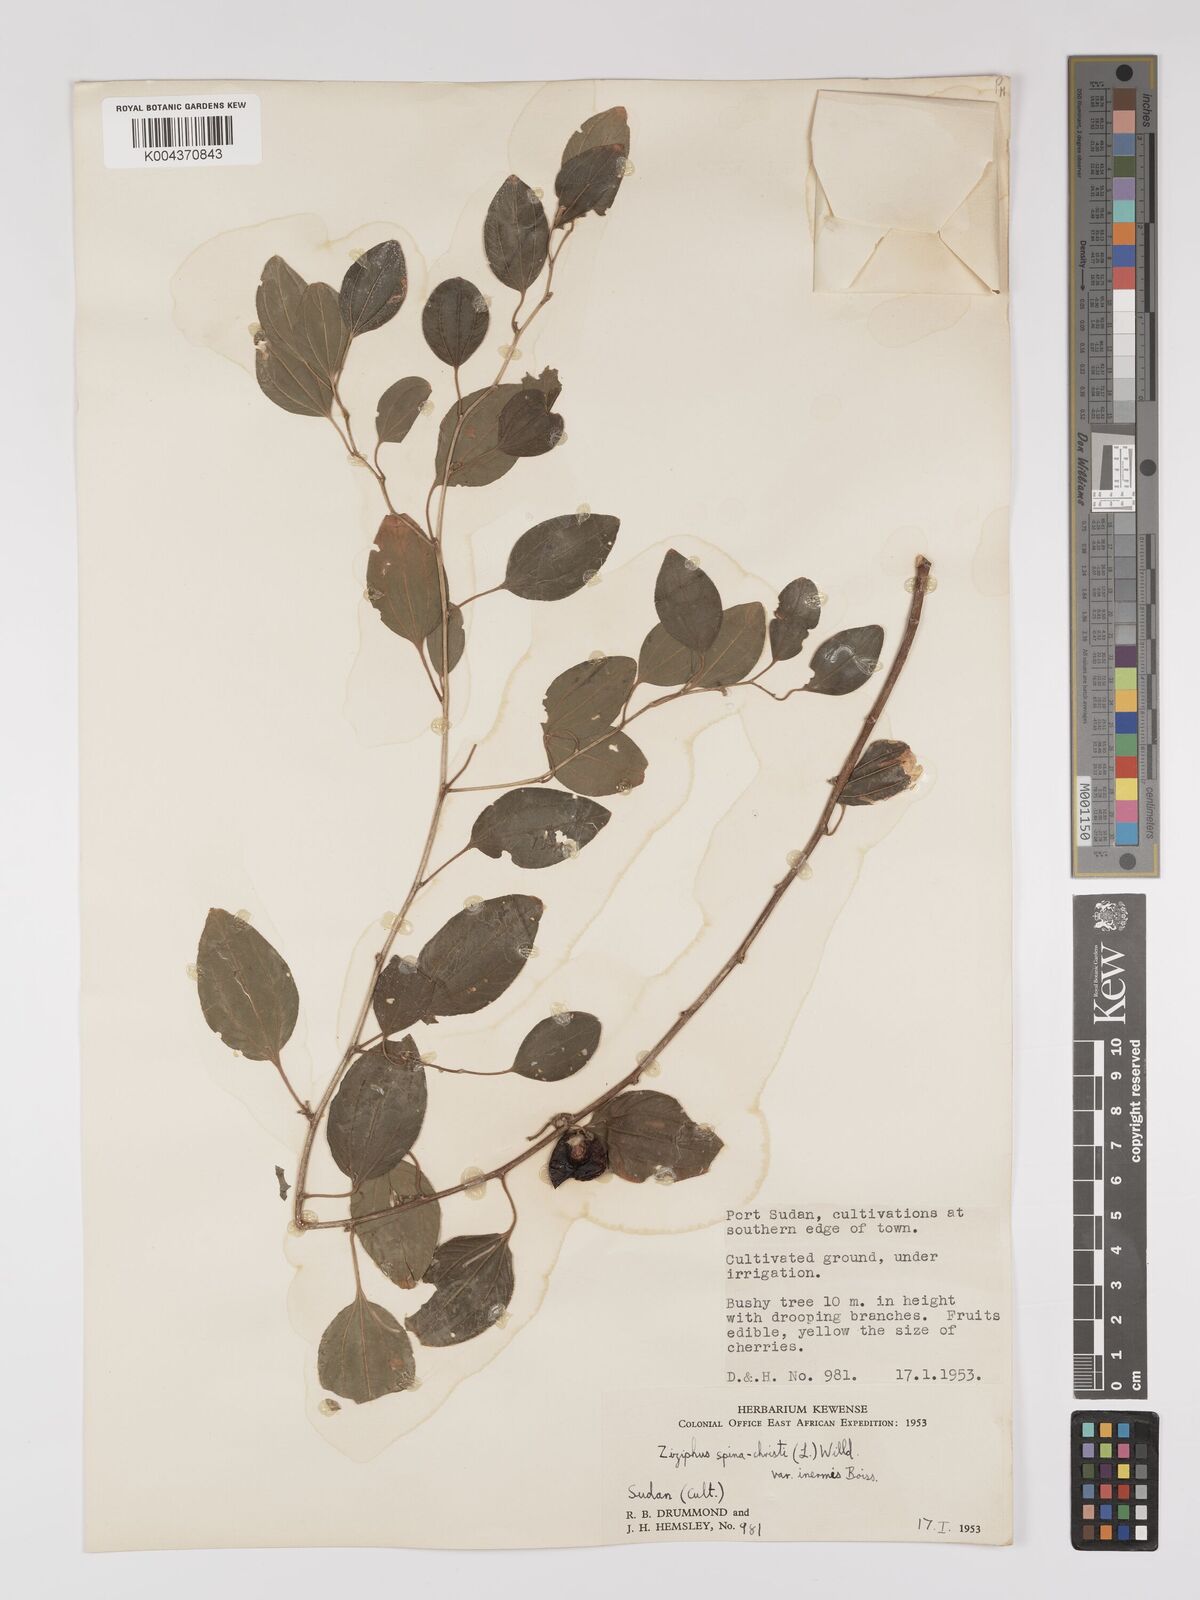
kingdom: Plantae
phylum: Tracheophyta
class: Magnoliopsida
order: Rosales
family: Rhamnaceae
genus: Ziziphus
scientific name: Ziziphus spina-christi
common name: Syrian christ-thorn
